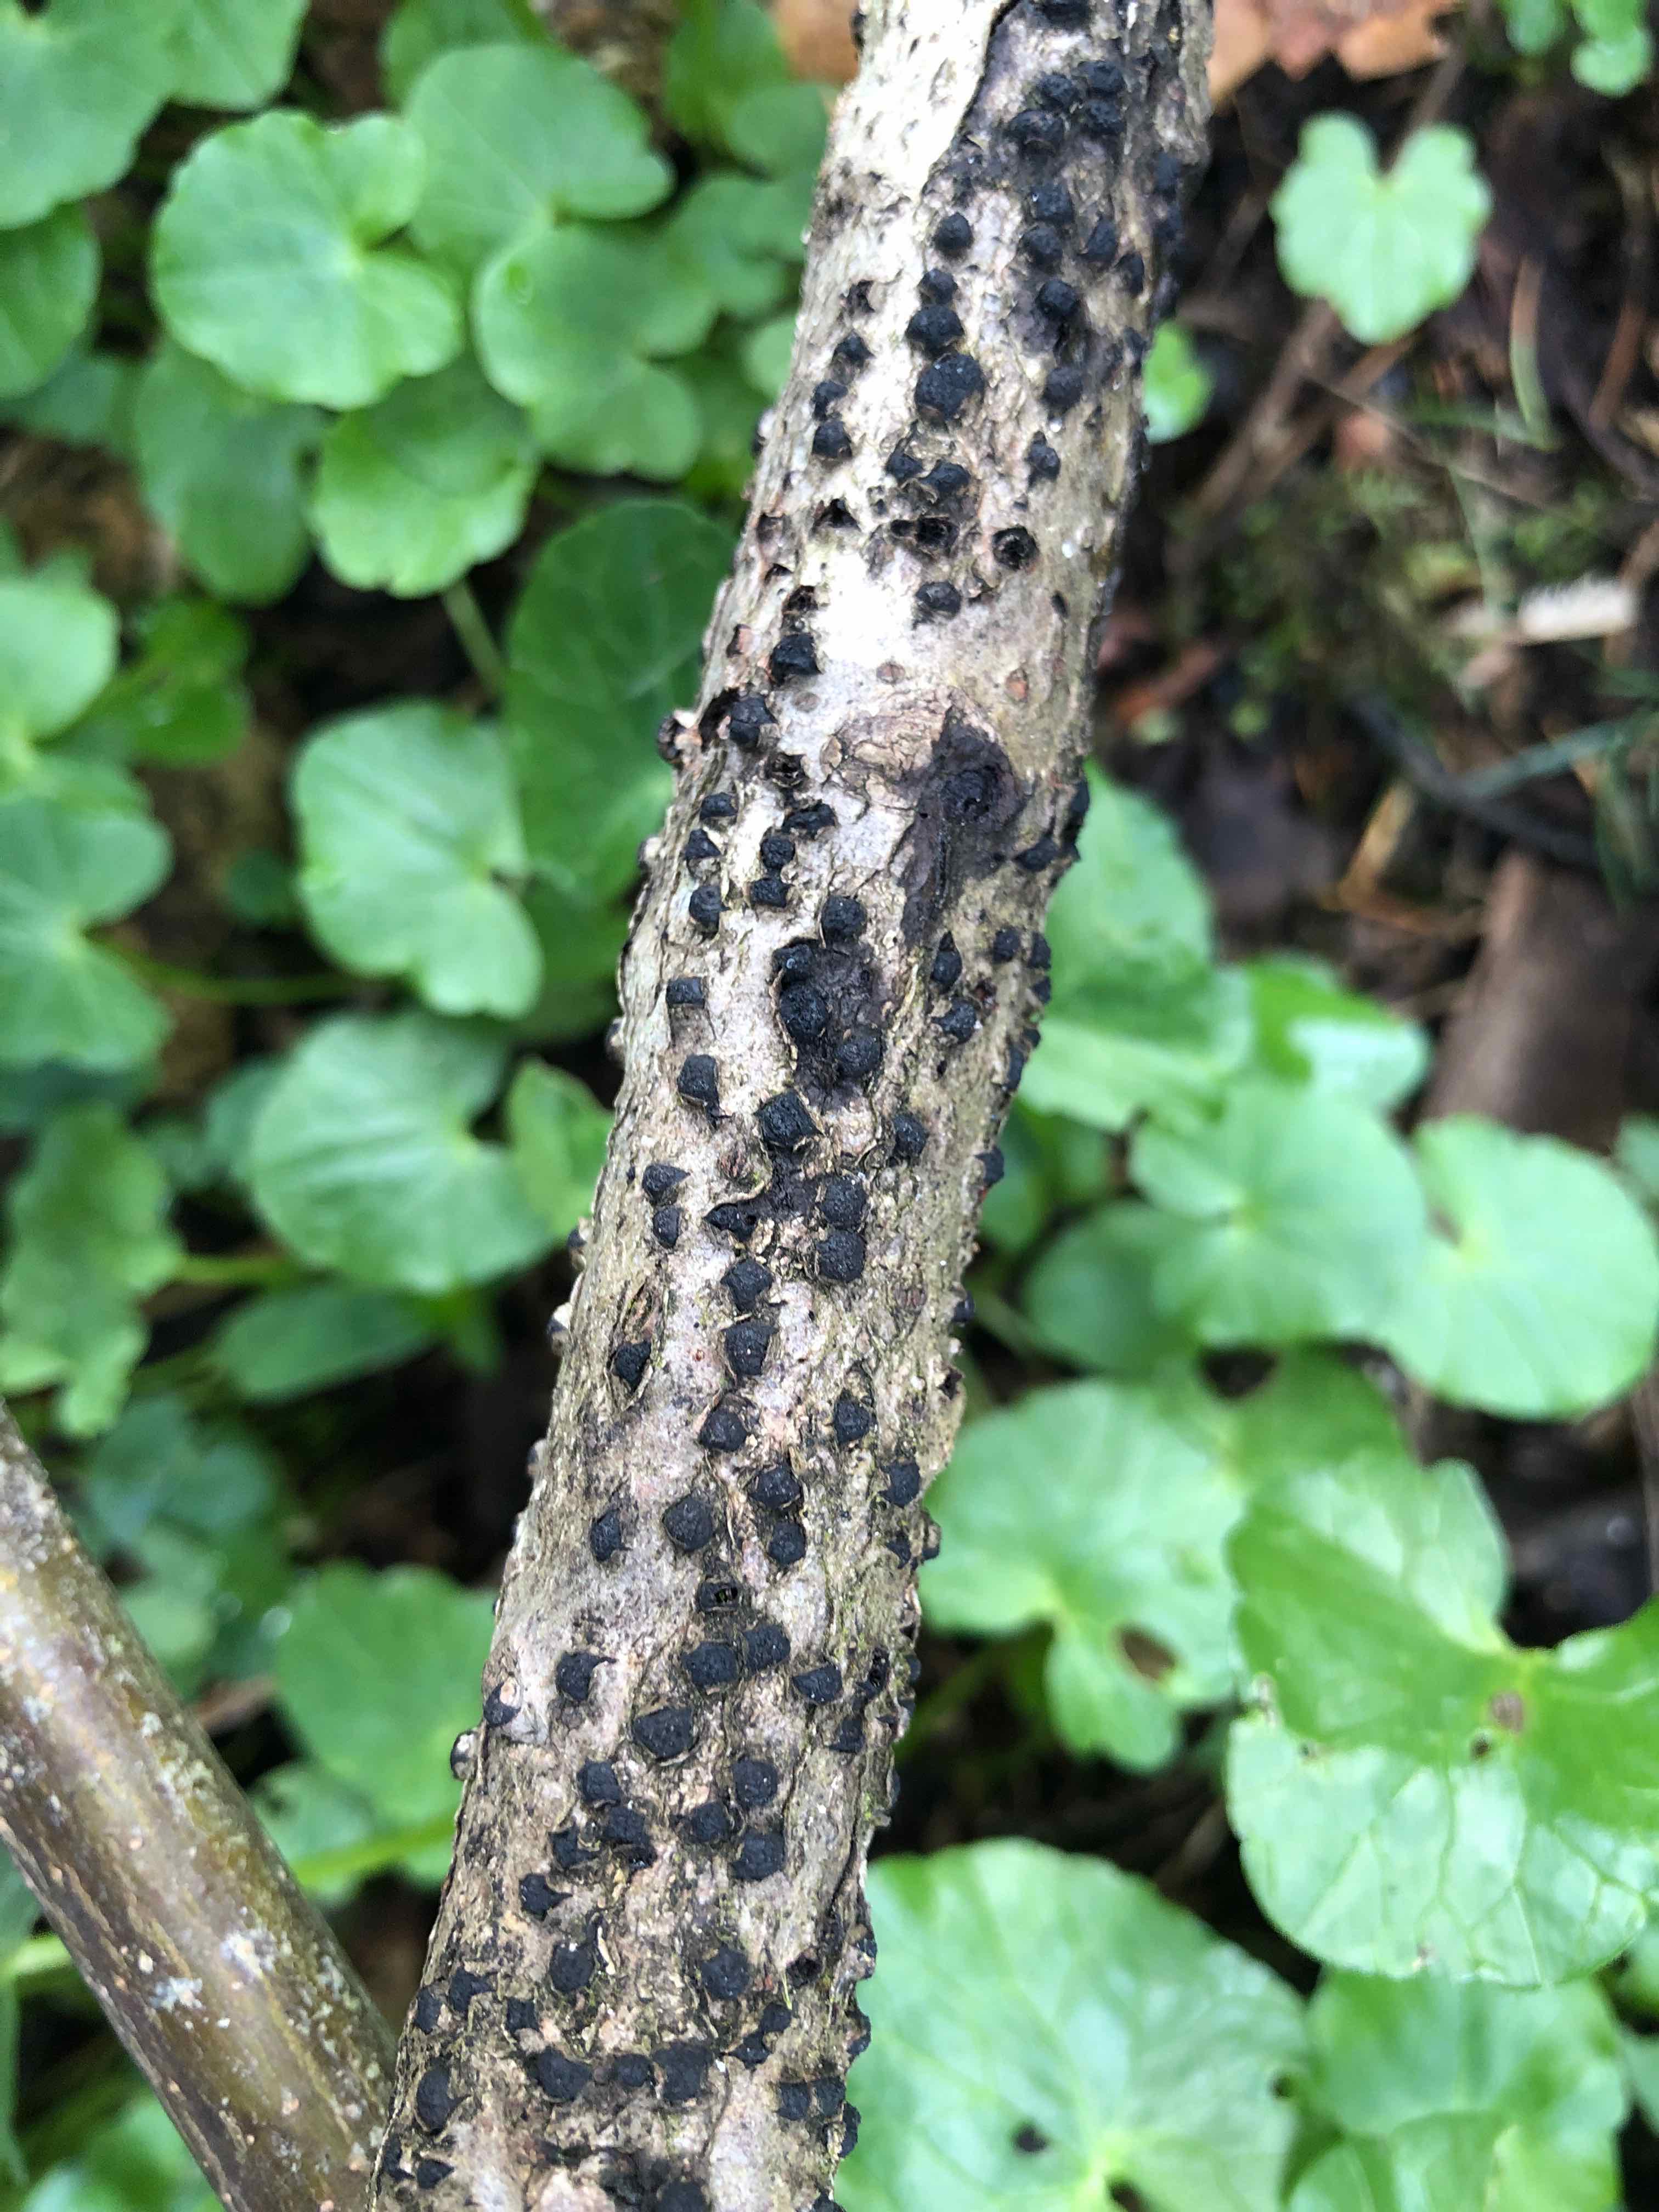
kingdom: Fungi
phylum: Ascomycota
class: Sordariomycetes
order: Xylariales
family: Diatrypaceae
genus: Diatrypella
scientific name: Diatrypella quercina
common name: ege-kulskorpe
